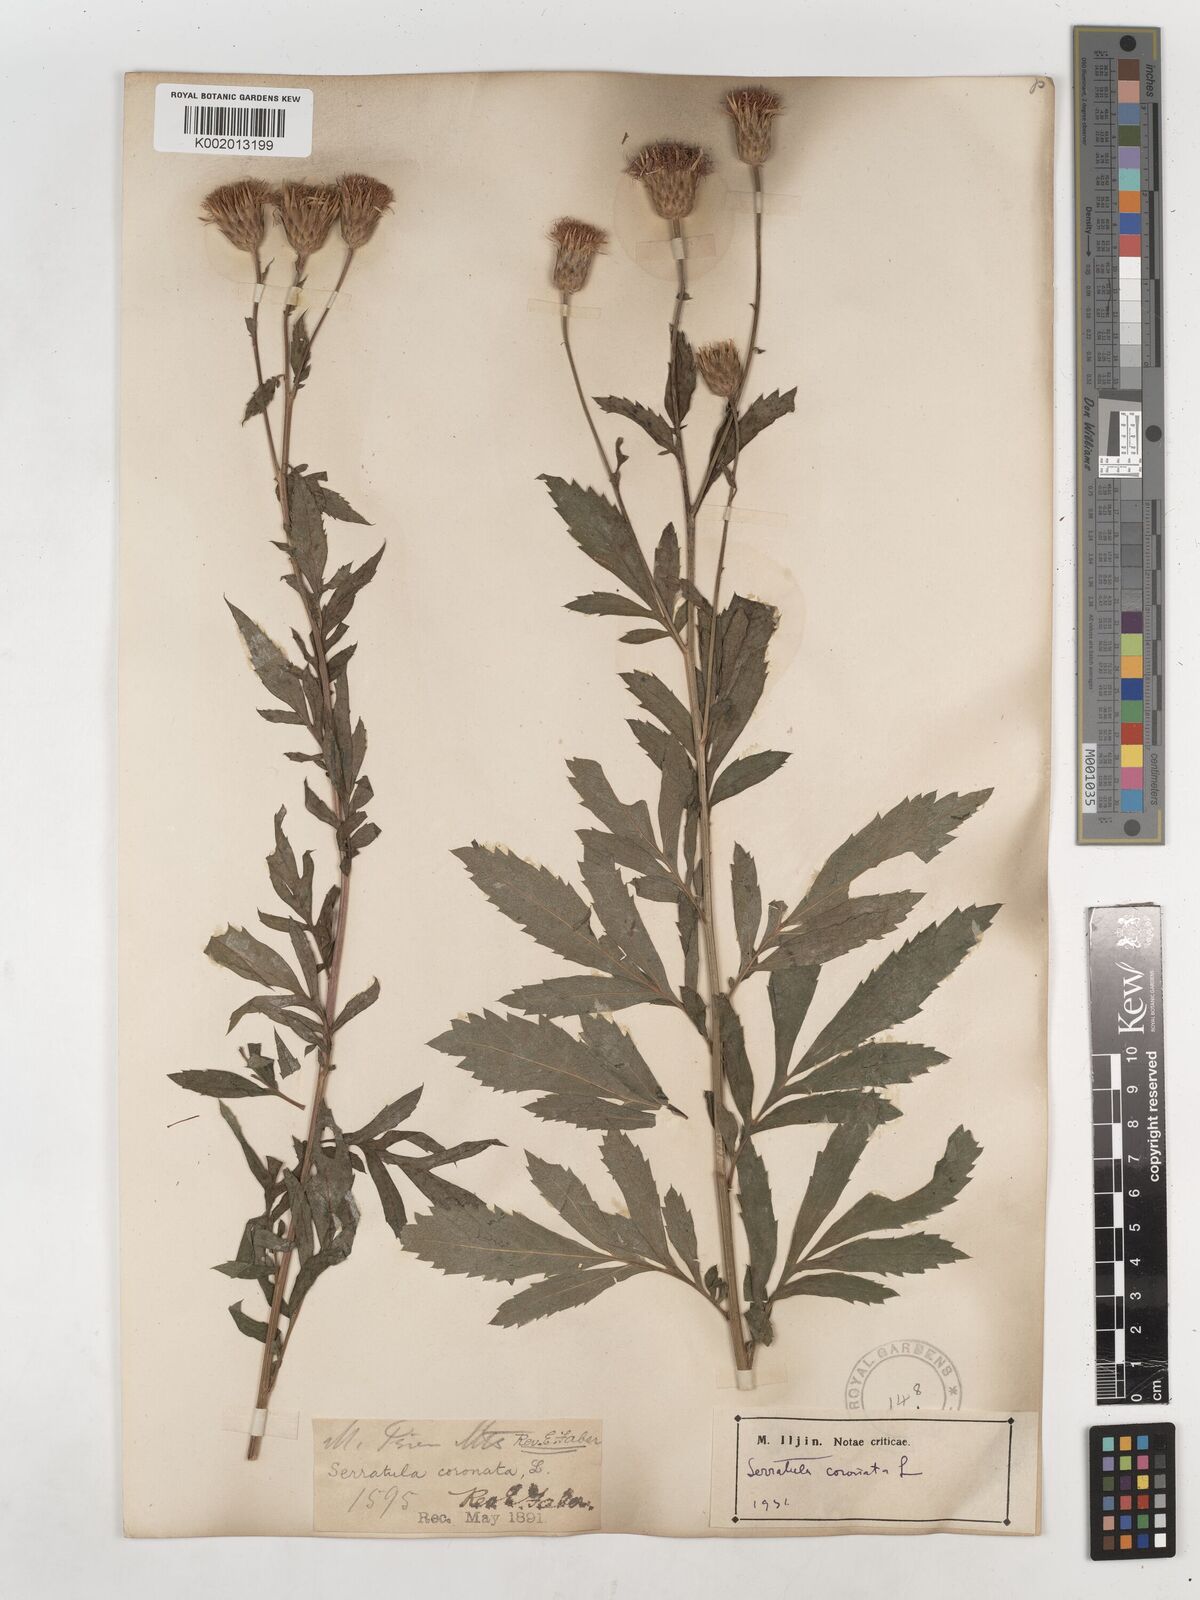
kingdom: Plantae
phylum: Tracheophyta
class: Magnoliopsida
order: Asterales
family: Asteraceae
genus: Serratula
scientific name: Serratula coronata
